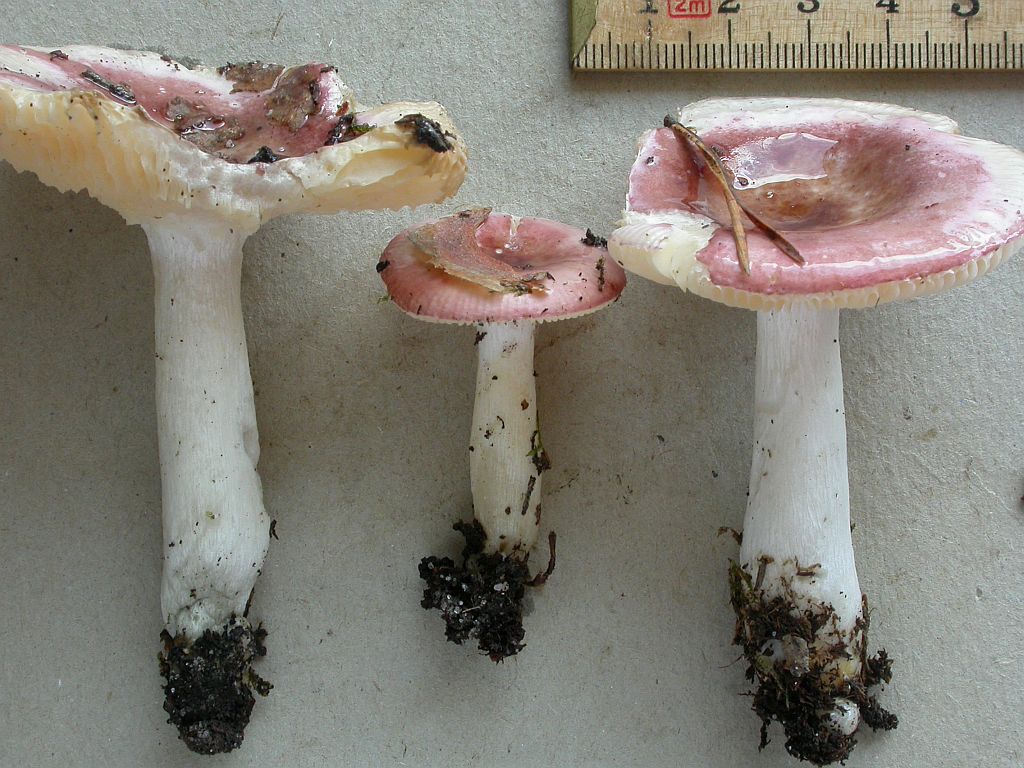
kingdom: Fungi
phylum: Basidiomycota
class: Agaricomycetes
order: Russulales
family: Russulaceae
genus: Russula
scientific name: Russula cessans
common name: fyrre-skørhat
